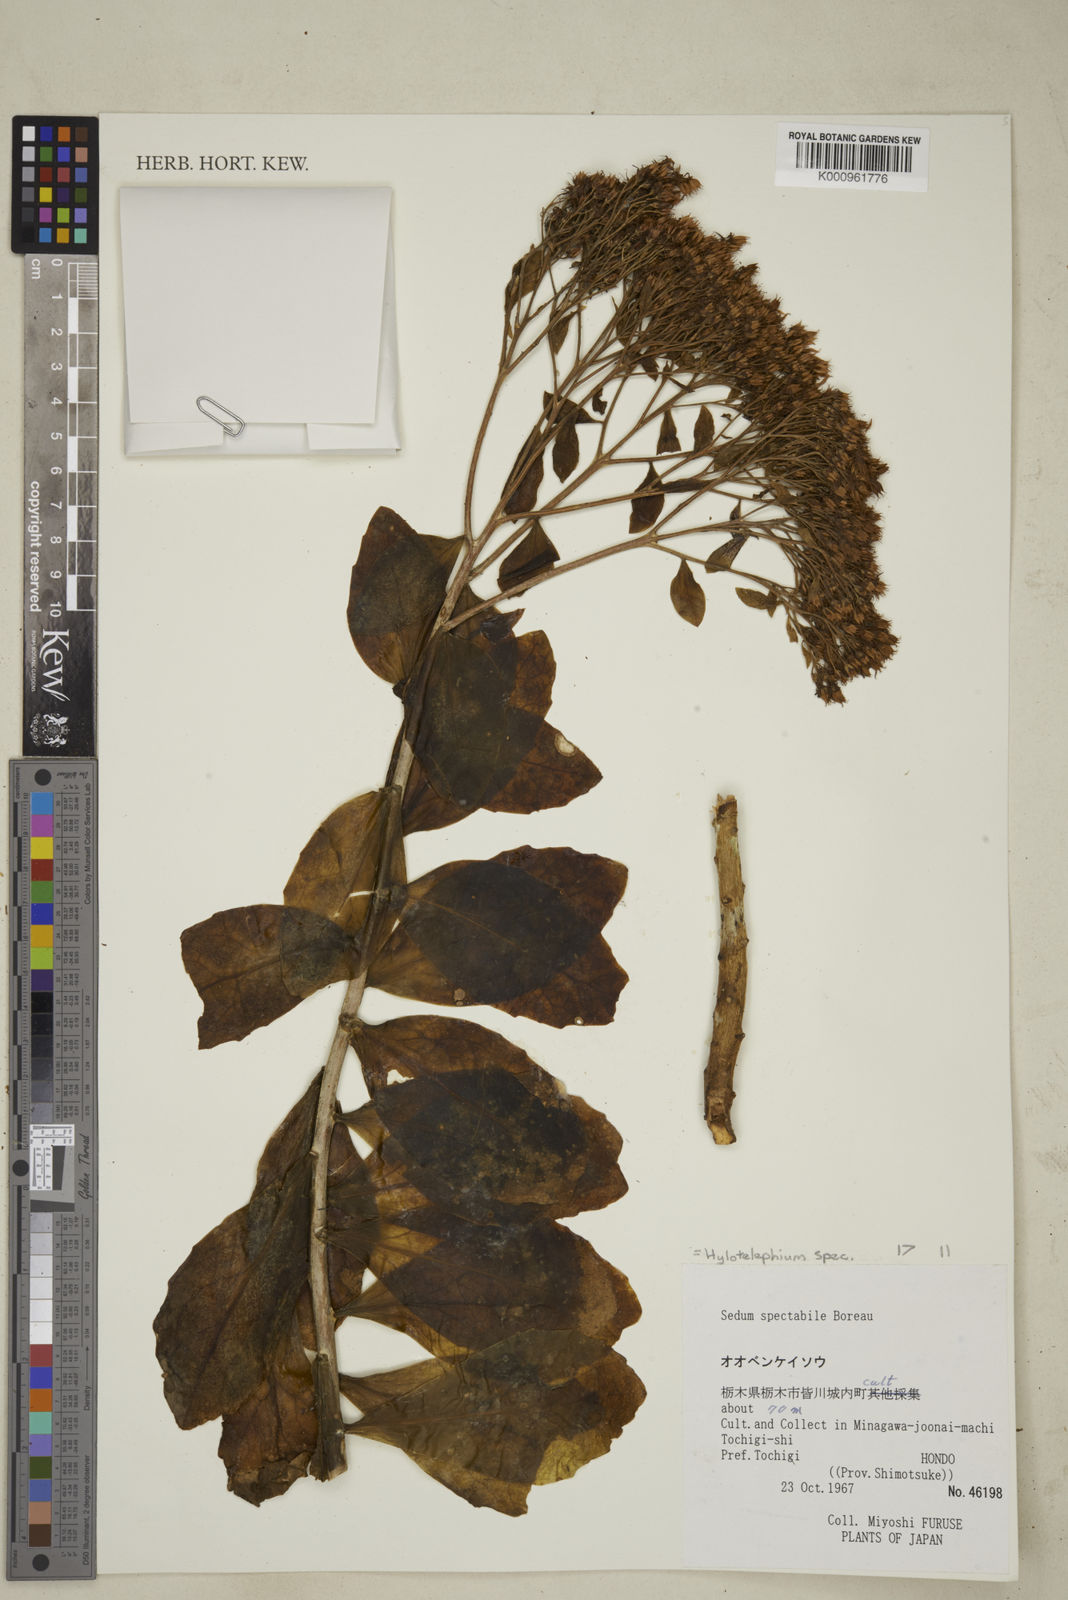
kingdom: Plantae
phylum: Tracheophyta
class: Magnoliopsida
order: Saxifragales
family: Crassulaceae
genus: Hylotelephium
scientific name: Hylotelephium spectabile
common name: Showy stonecrop
